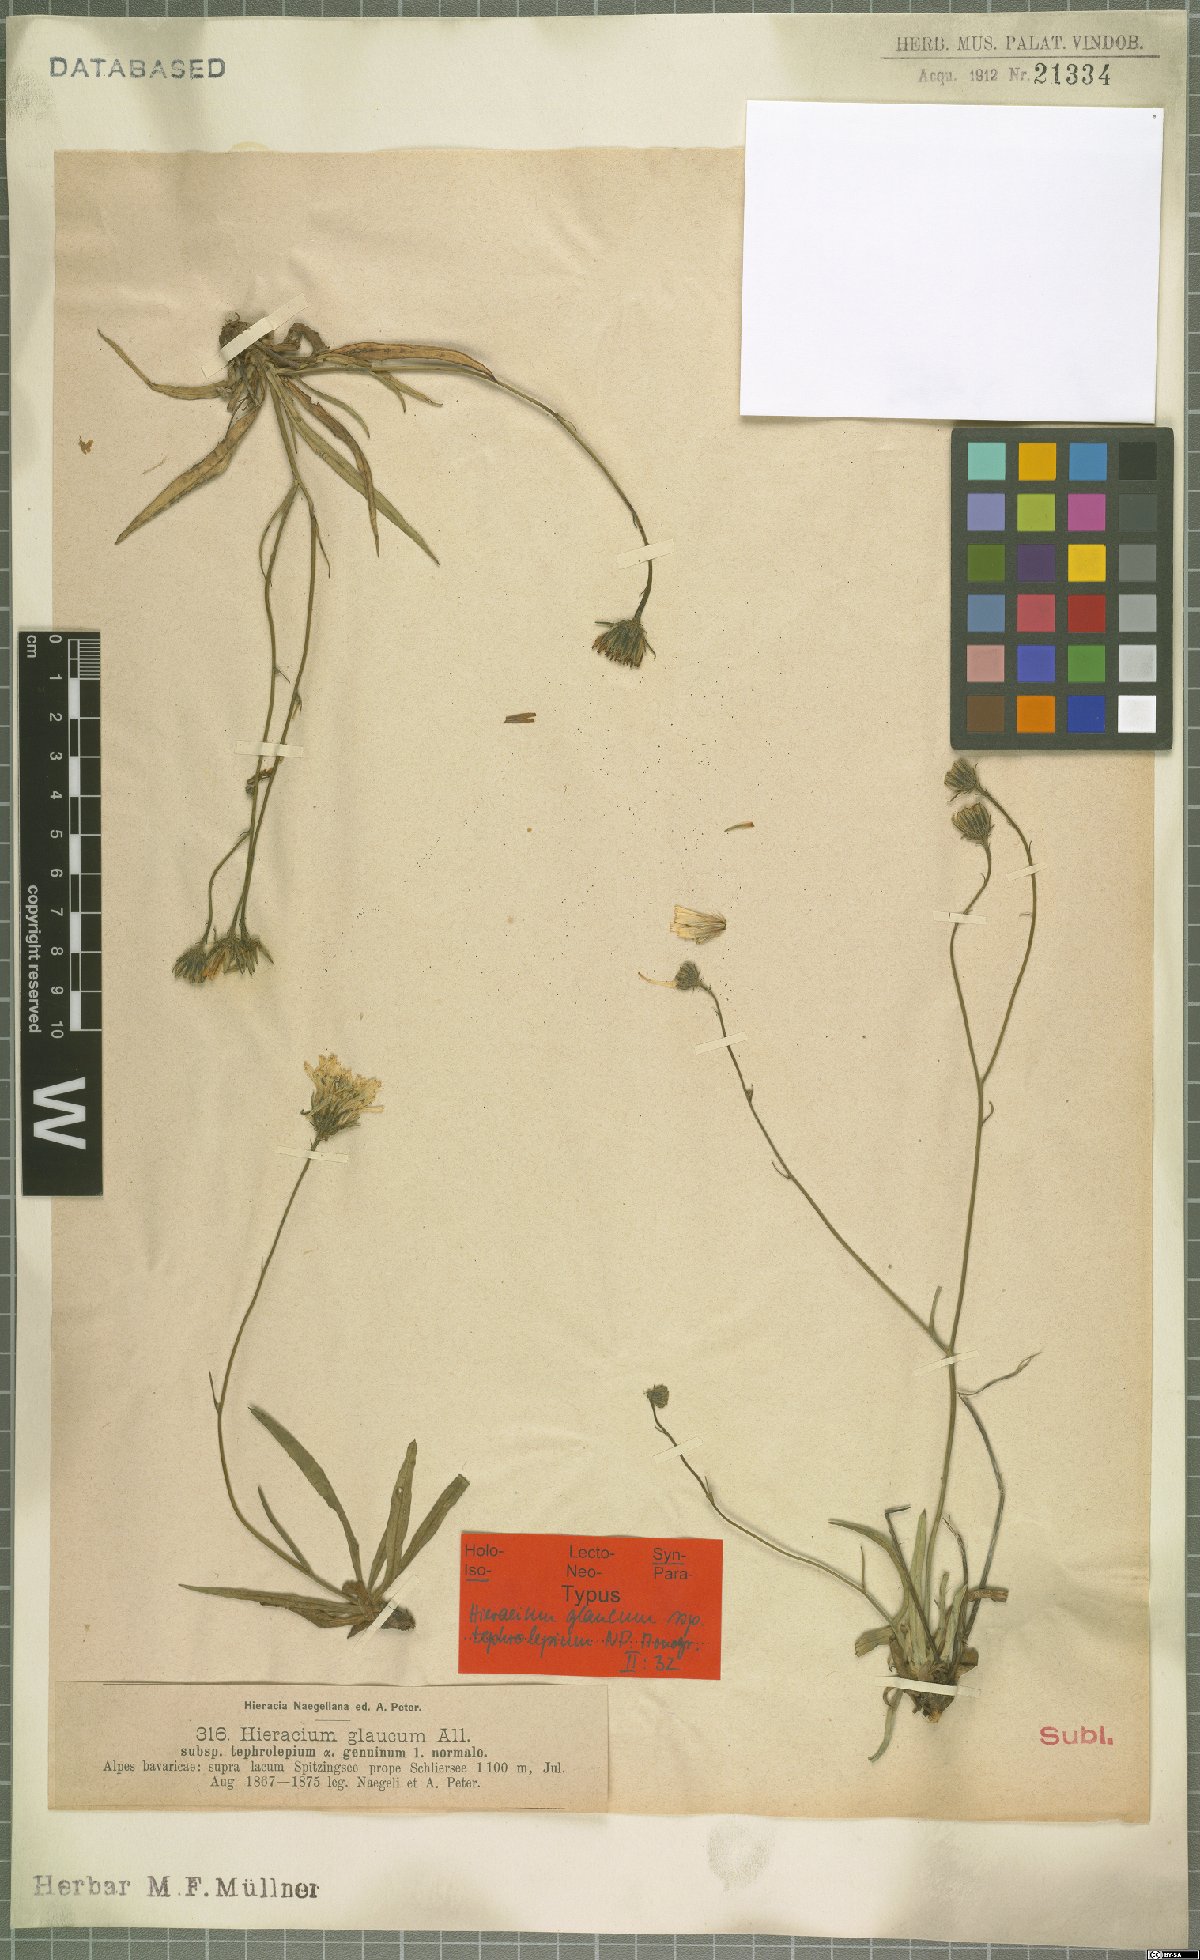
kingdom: Plantae
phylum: Tracheophyta
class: Magnoliopsida
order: Asterales
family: Asteraceae
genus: Hieracium
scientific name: Hieracium glaucum
